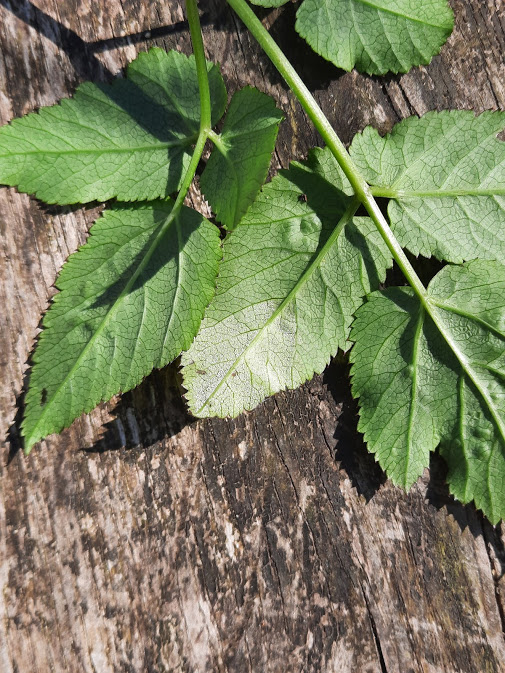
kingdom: Chromista
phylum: Oomycota
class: Peronosporea
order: Peronosporales
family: Peronosporaceae
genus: Peronospora
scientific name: Peronospora crustosa
